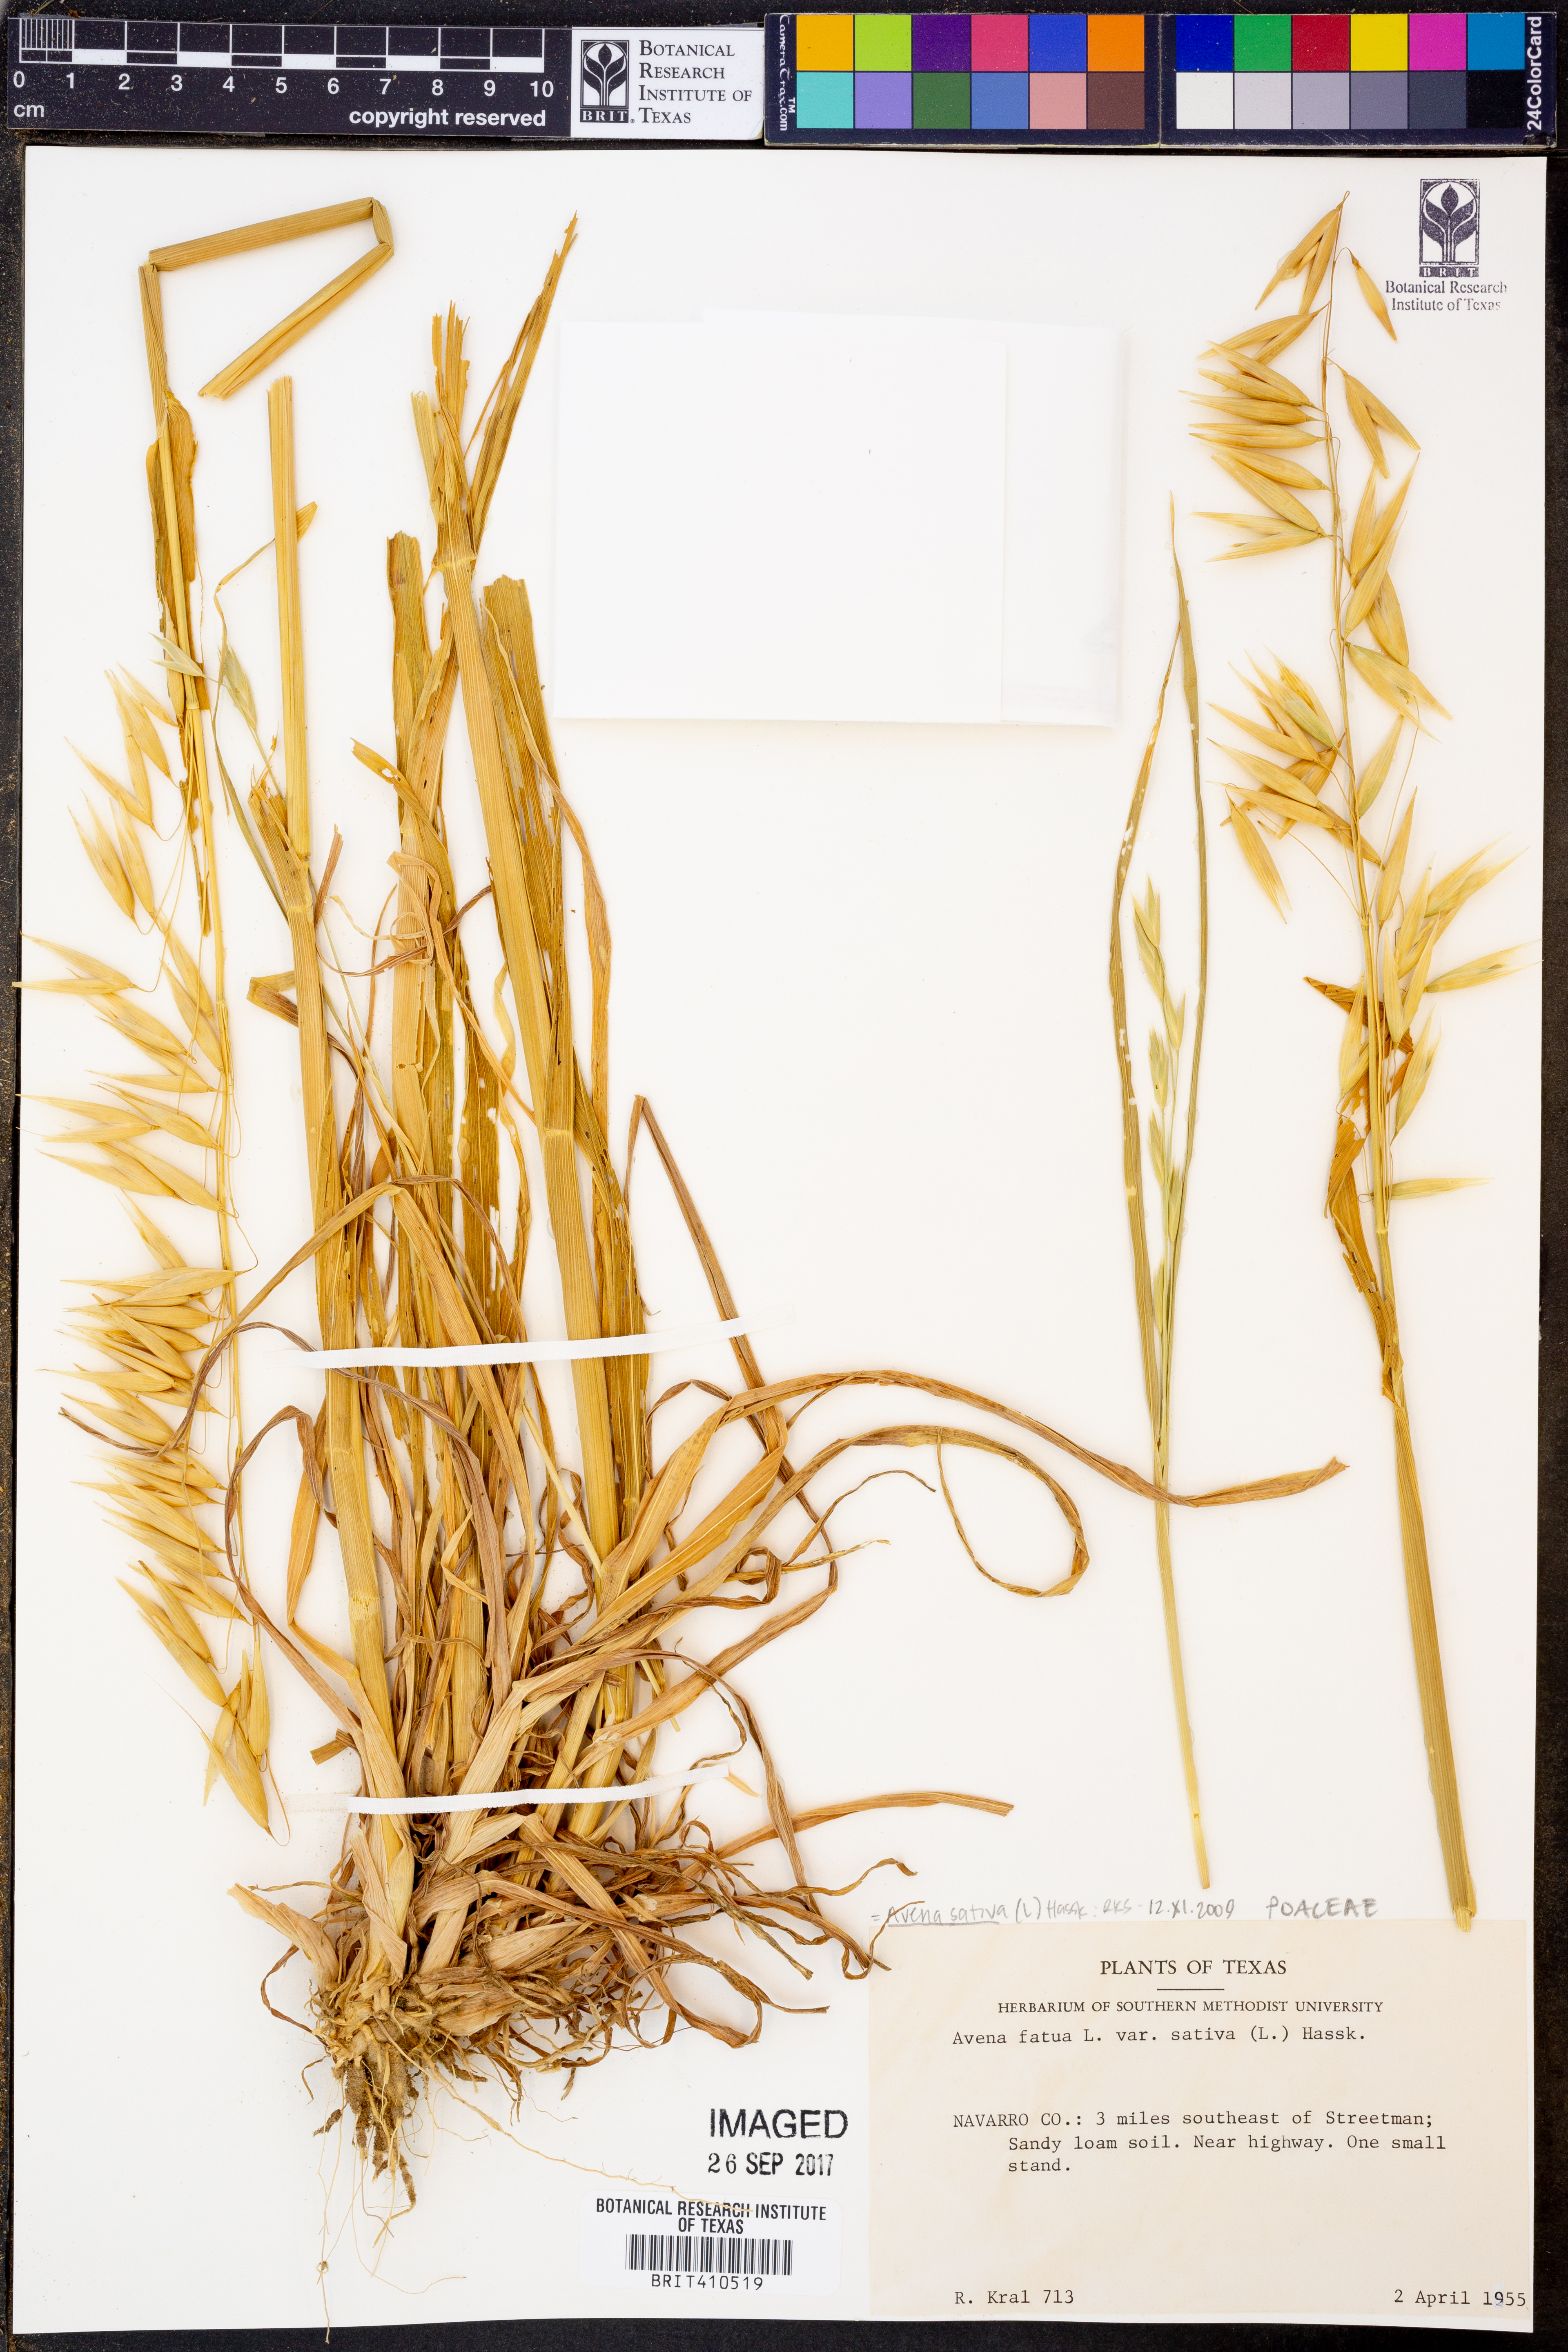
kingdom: Plantae
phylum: Tracheophyta
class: Liliopsida
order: Poales
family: Poaceae
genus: Avena
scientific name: Avena sativa
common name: Oat
